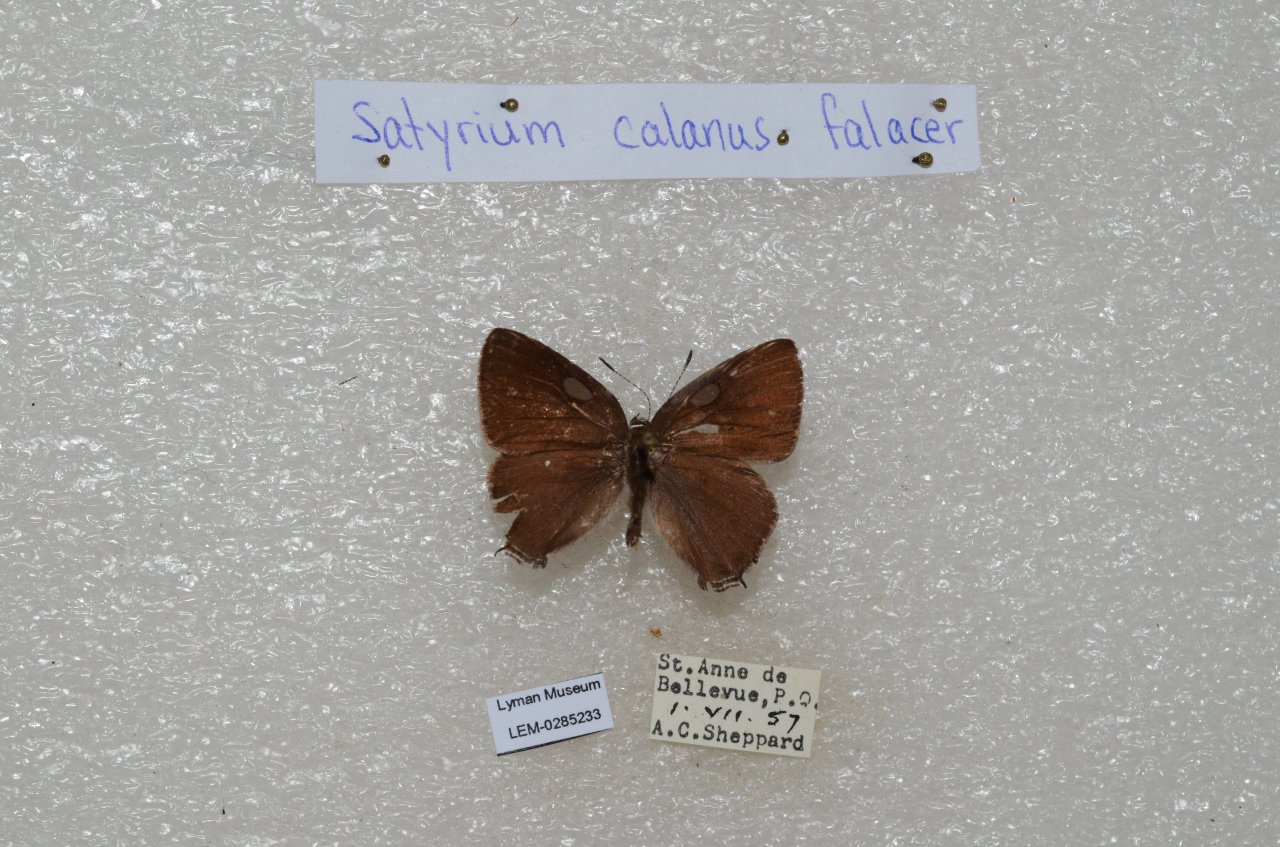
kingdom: Animalia
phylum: Arthropoda
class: Insecta
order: Lepidoptera
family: Lycaenidae
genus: Satyrium
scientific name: Satyrium calanus
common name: Banded Hairstreak
